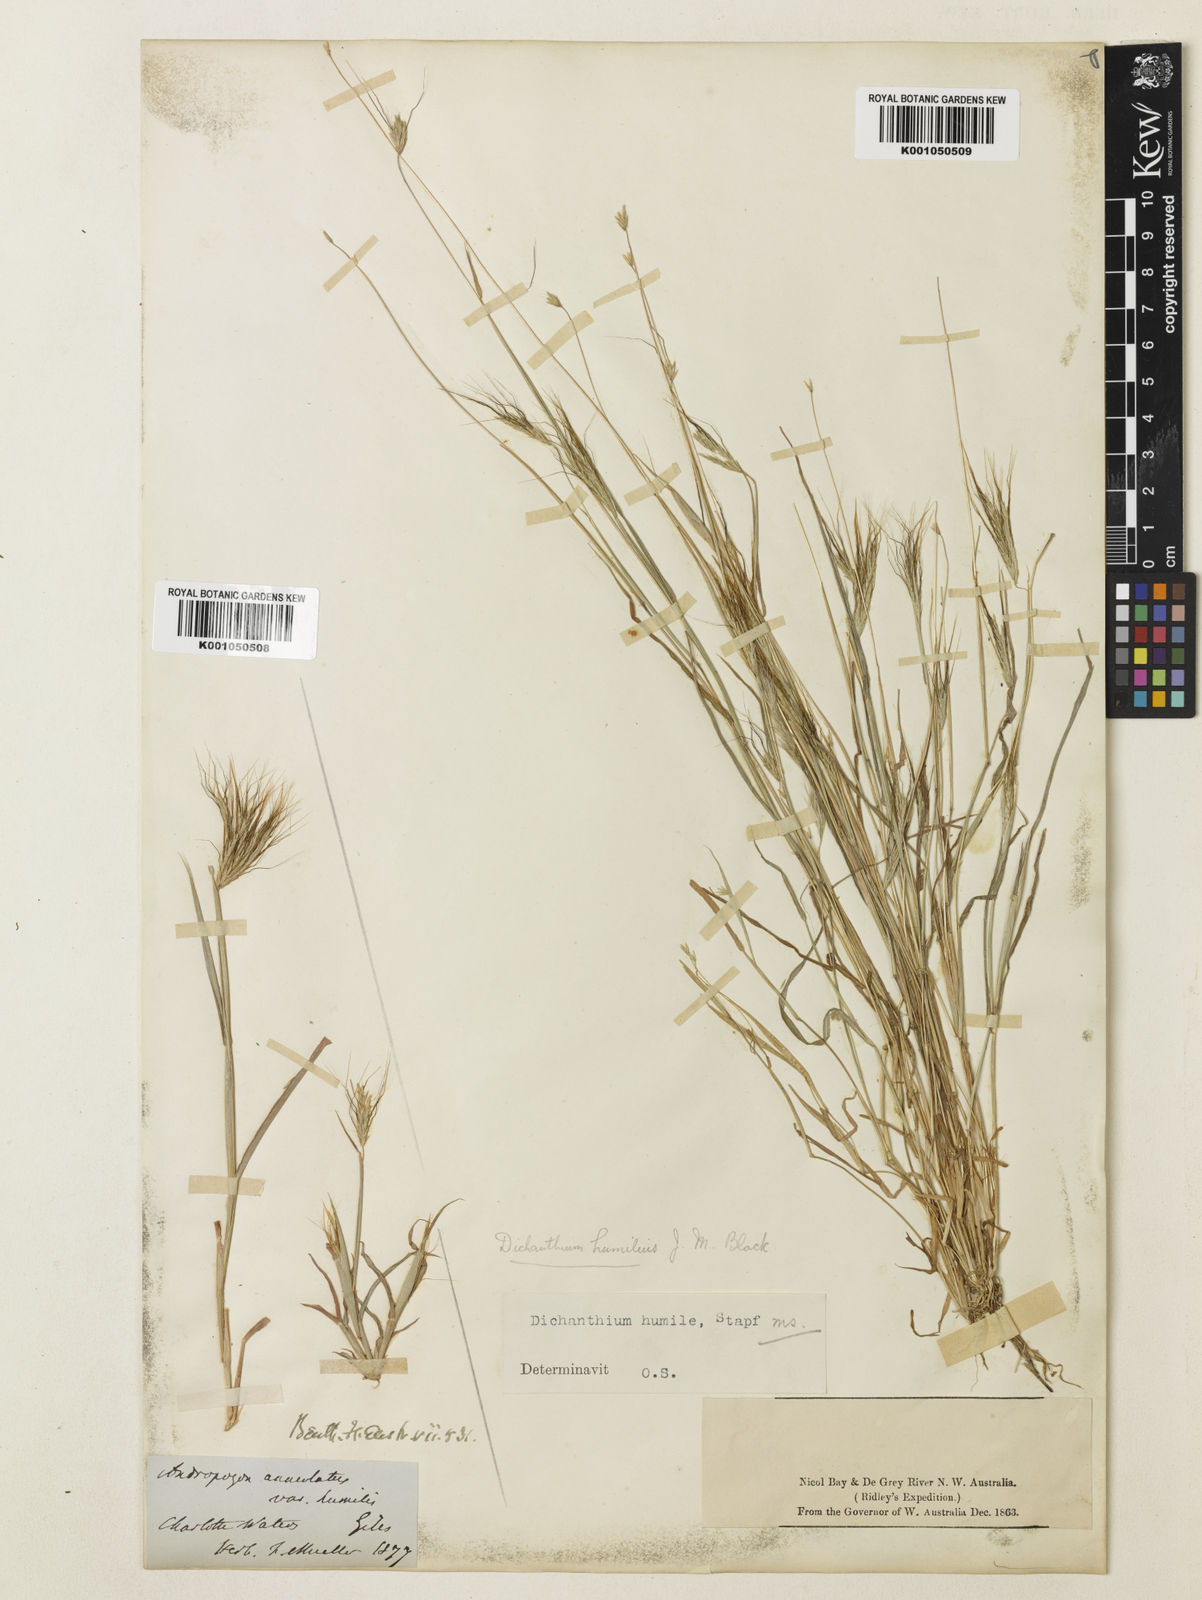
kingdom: Plantae
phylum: Tracheophyta
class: Liliopsida
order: Poales
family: Poaceae
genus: Dichanthium
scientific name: Dichanthium sericeum
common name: Silky bluestem
